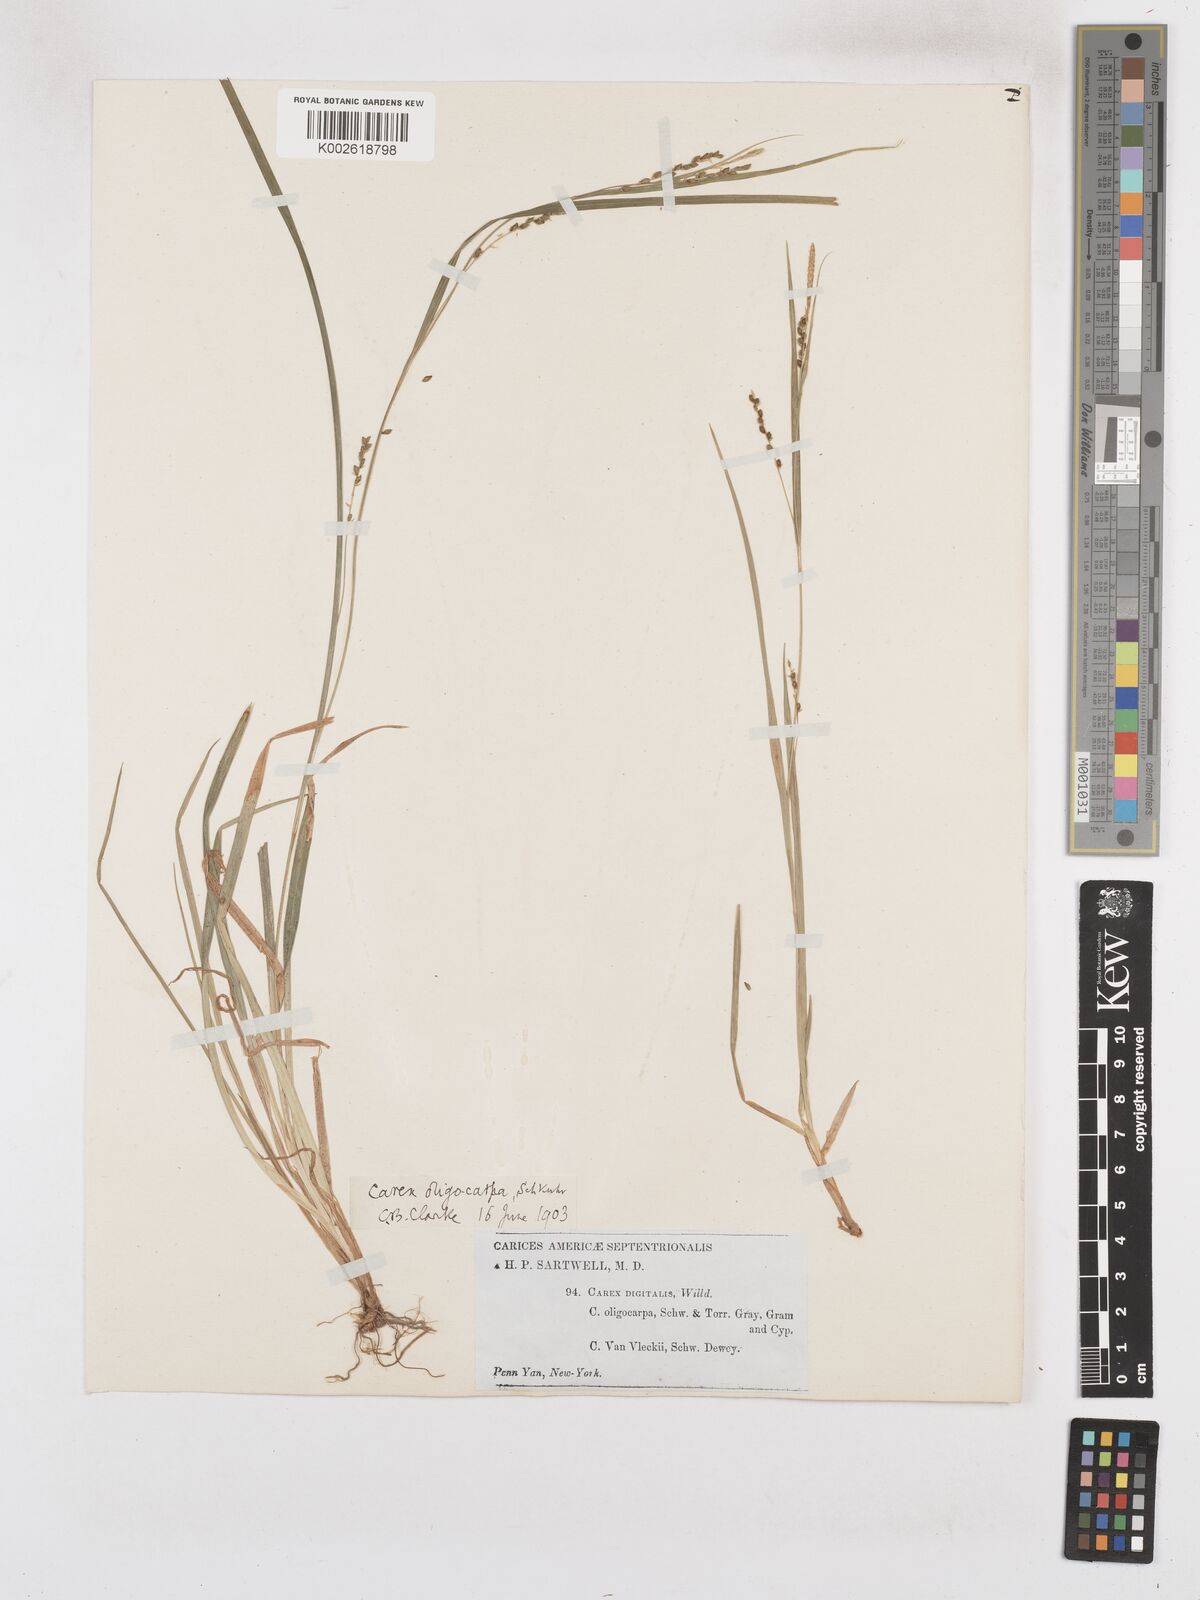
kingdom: Plantae
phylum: Tracheophyta
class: Liliopsida
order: Poales
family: Cyperaceae
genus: Carex
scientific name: Carex digitalis
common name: Slender wood sedge
